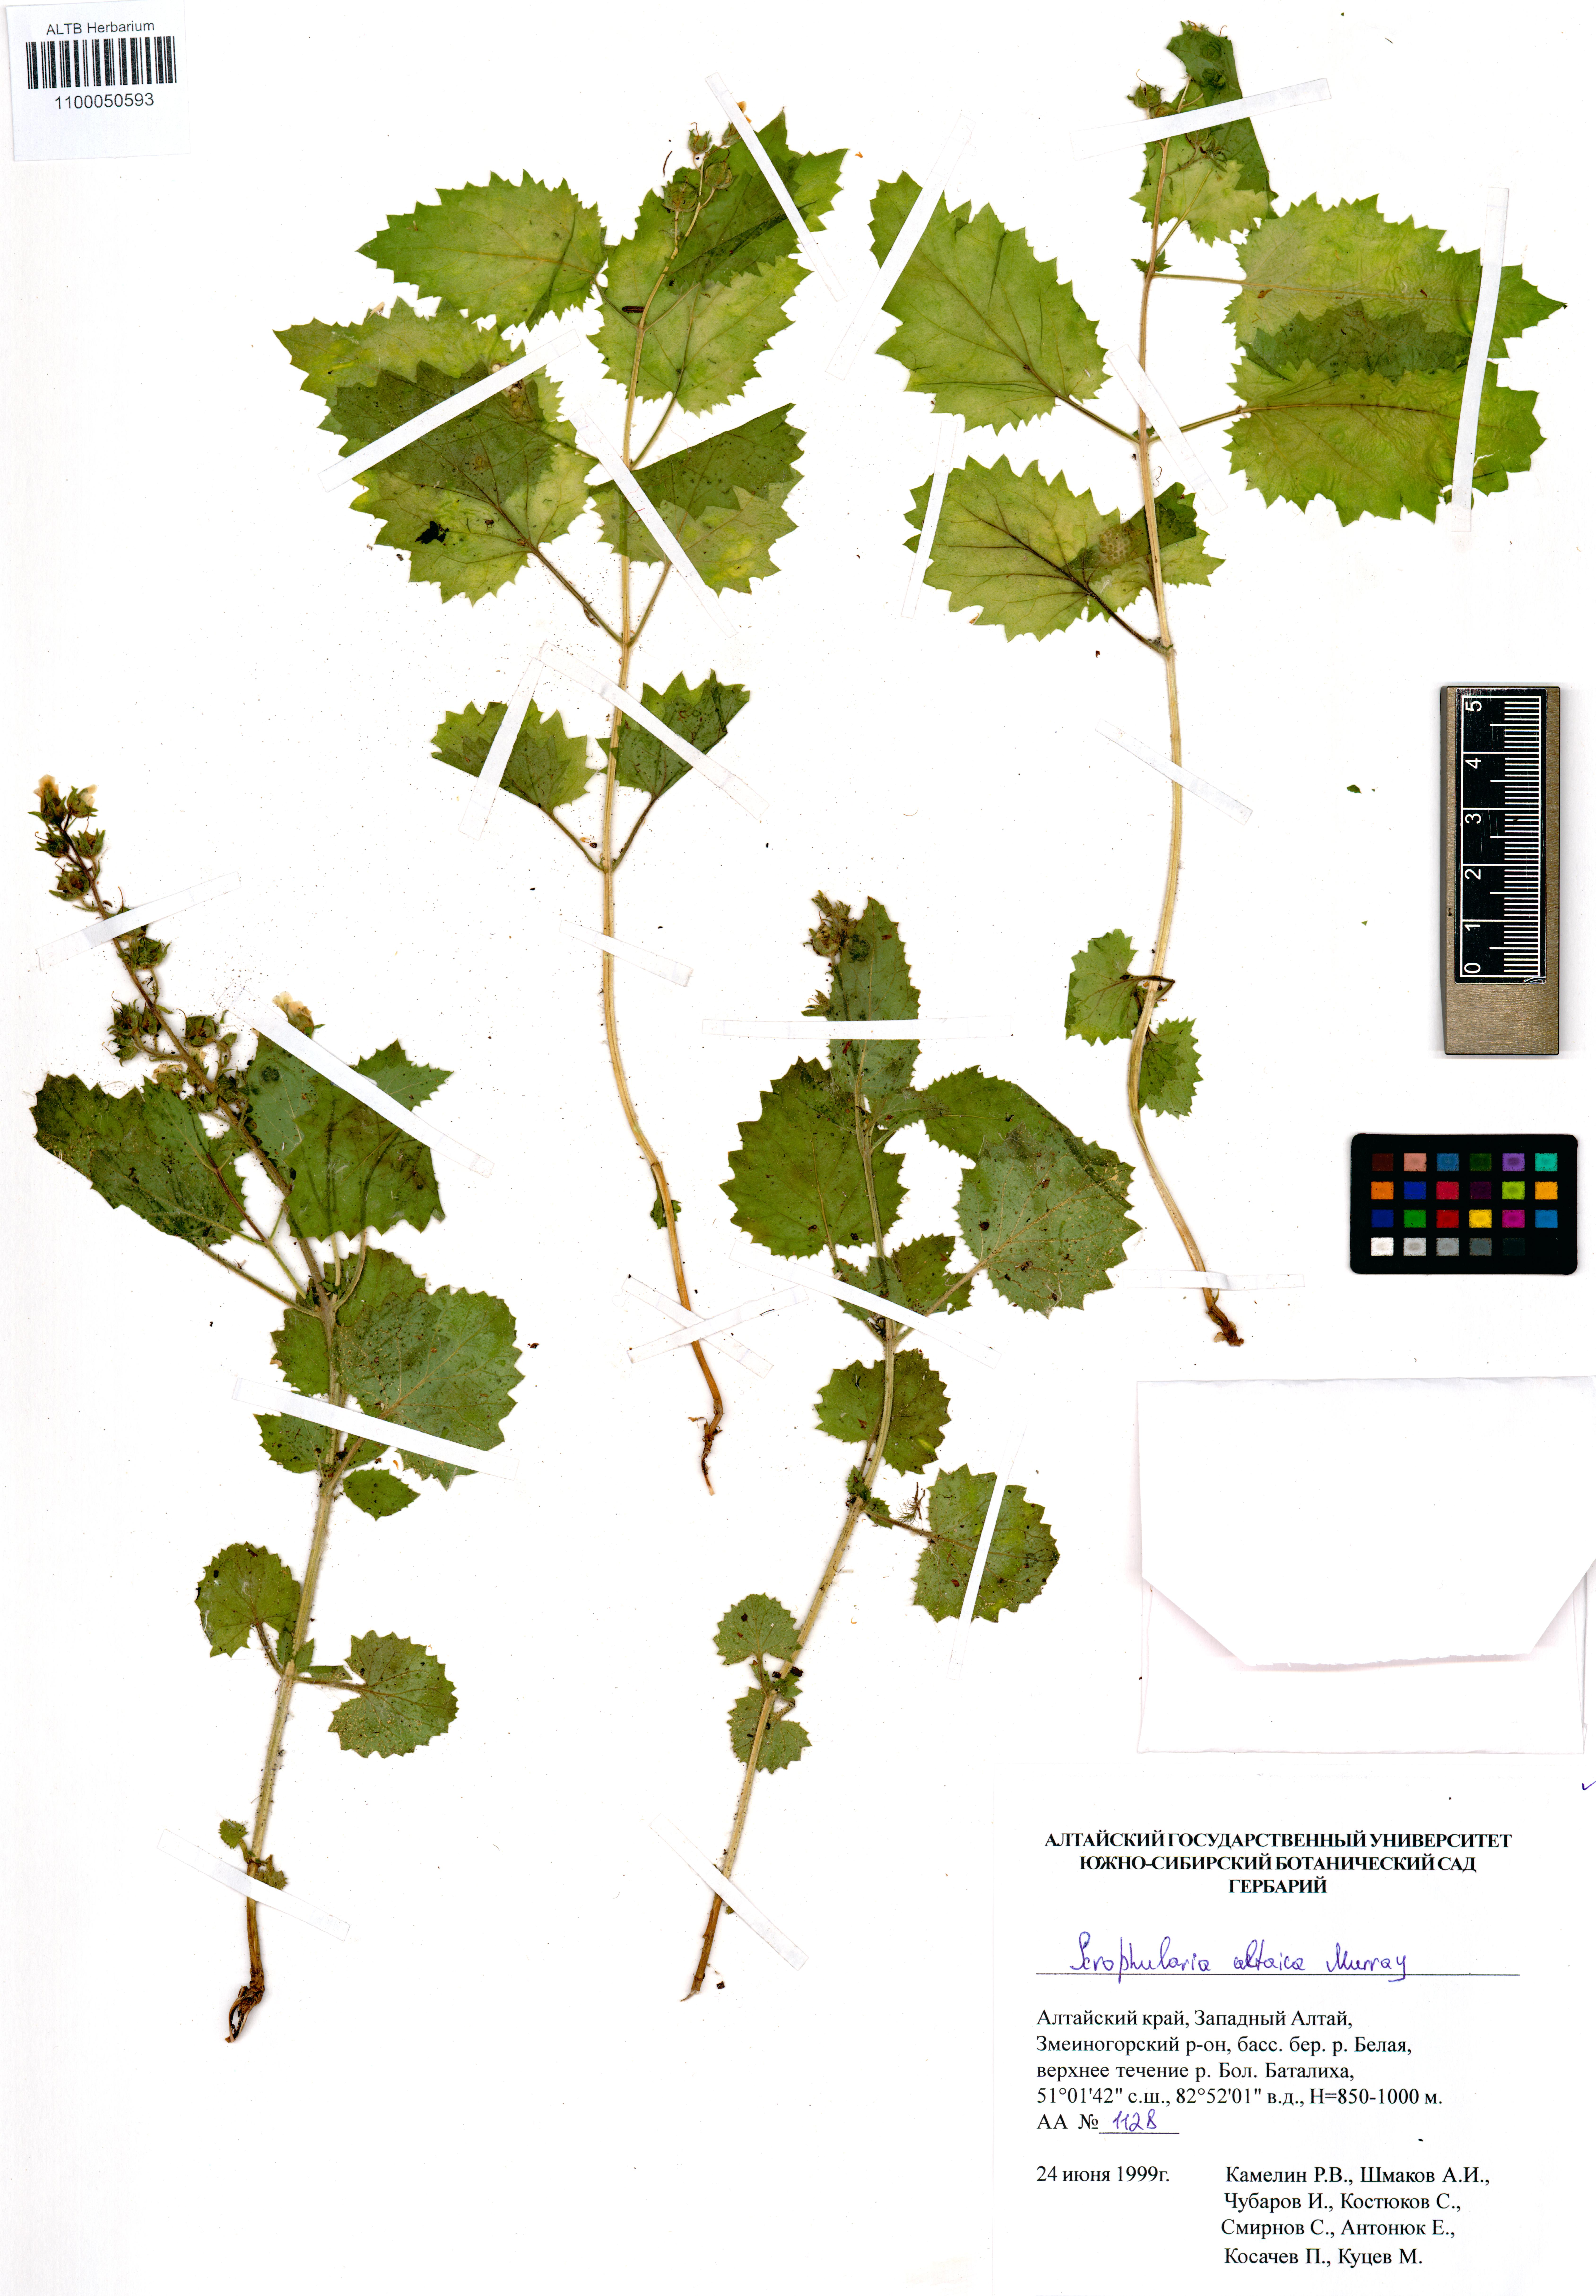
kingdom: Plantae
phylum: Tracheophyta
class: Magnoliopsida
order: Lamiales
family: Scrophulariaceae
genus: Scrophularia
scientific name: Scrophularia altaica
